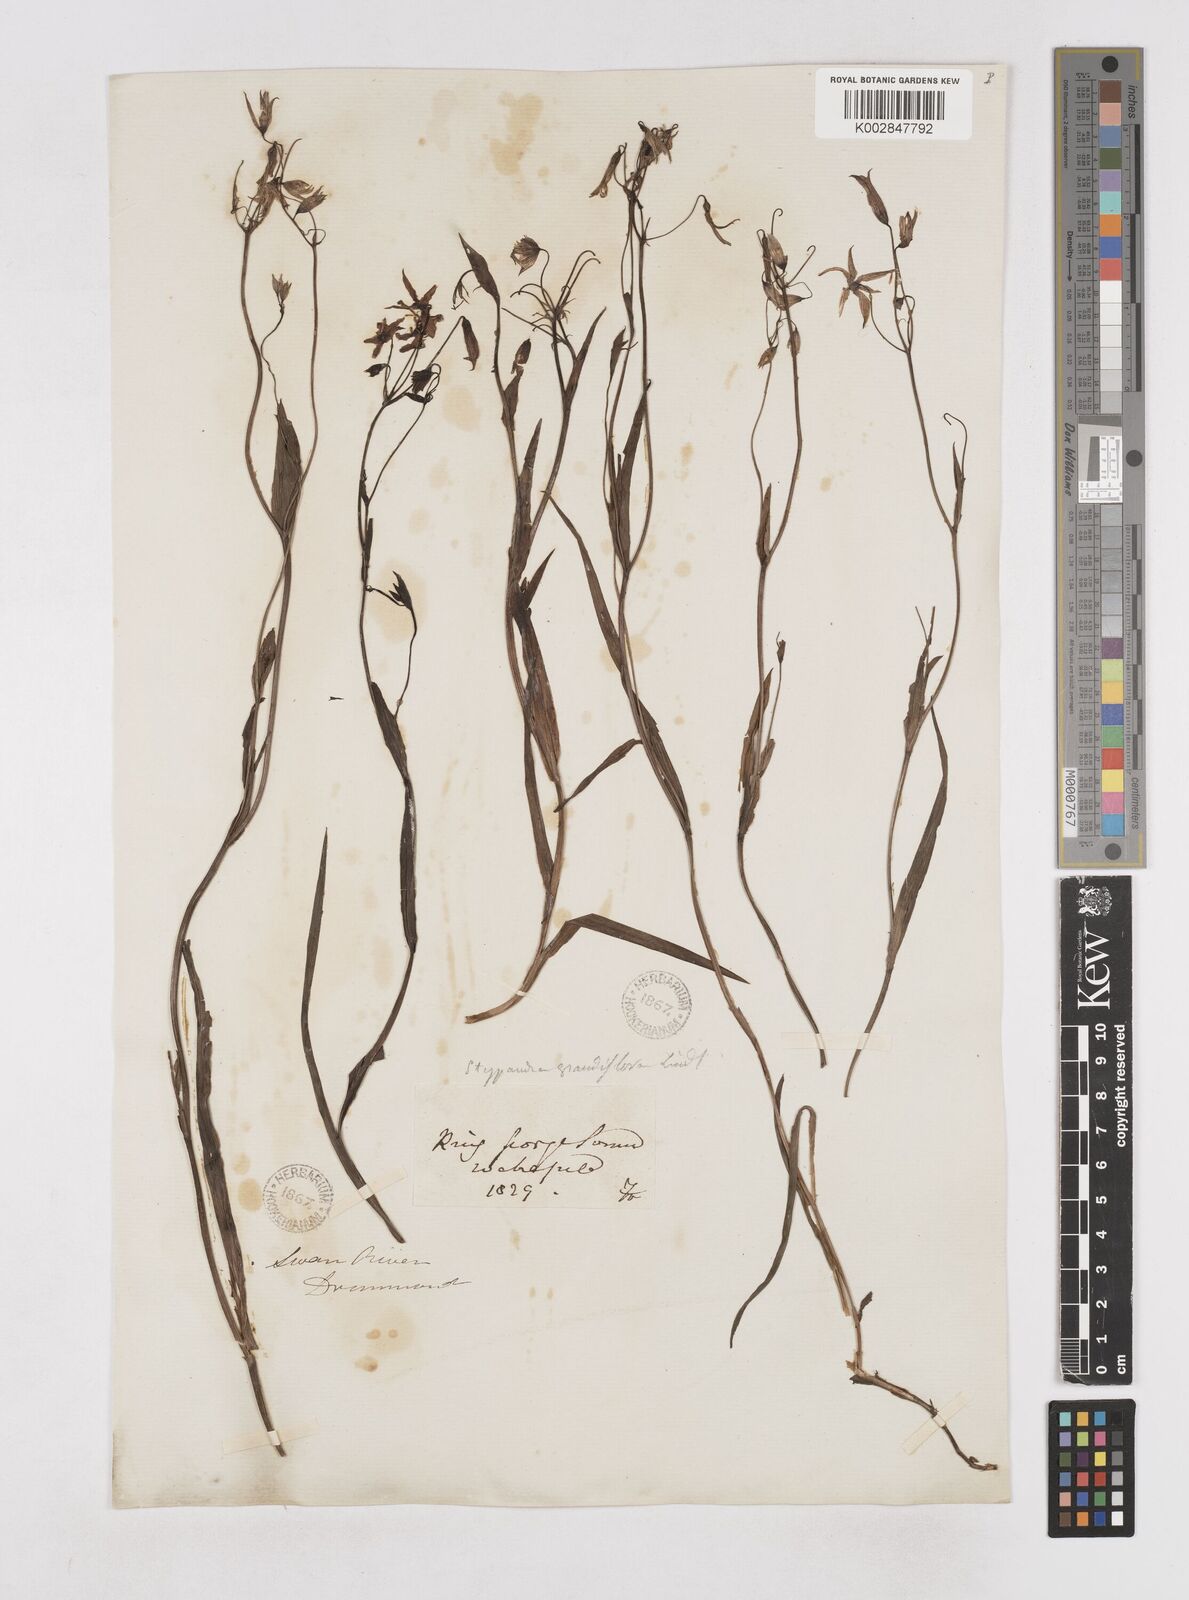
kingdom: Plantae
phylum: Tracheophyta
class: Liliopsida
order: Asparagales
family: Asphodelaceae
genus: Stypandra
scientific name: Stypandra glauca
